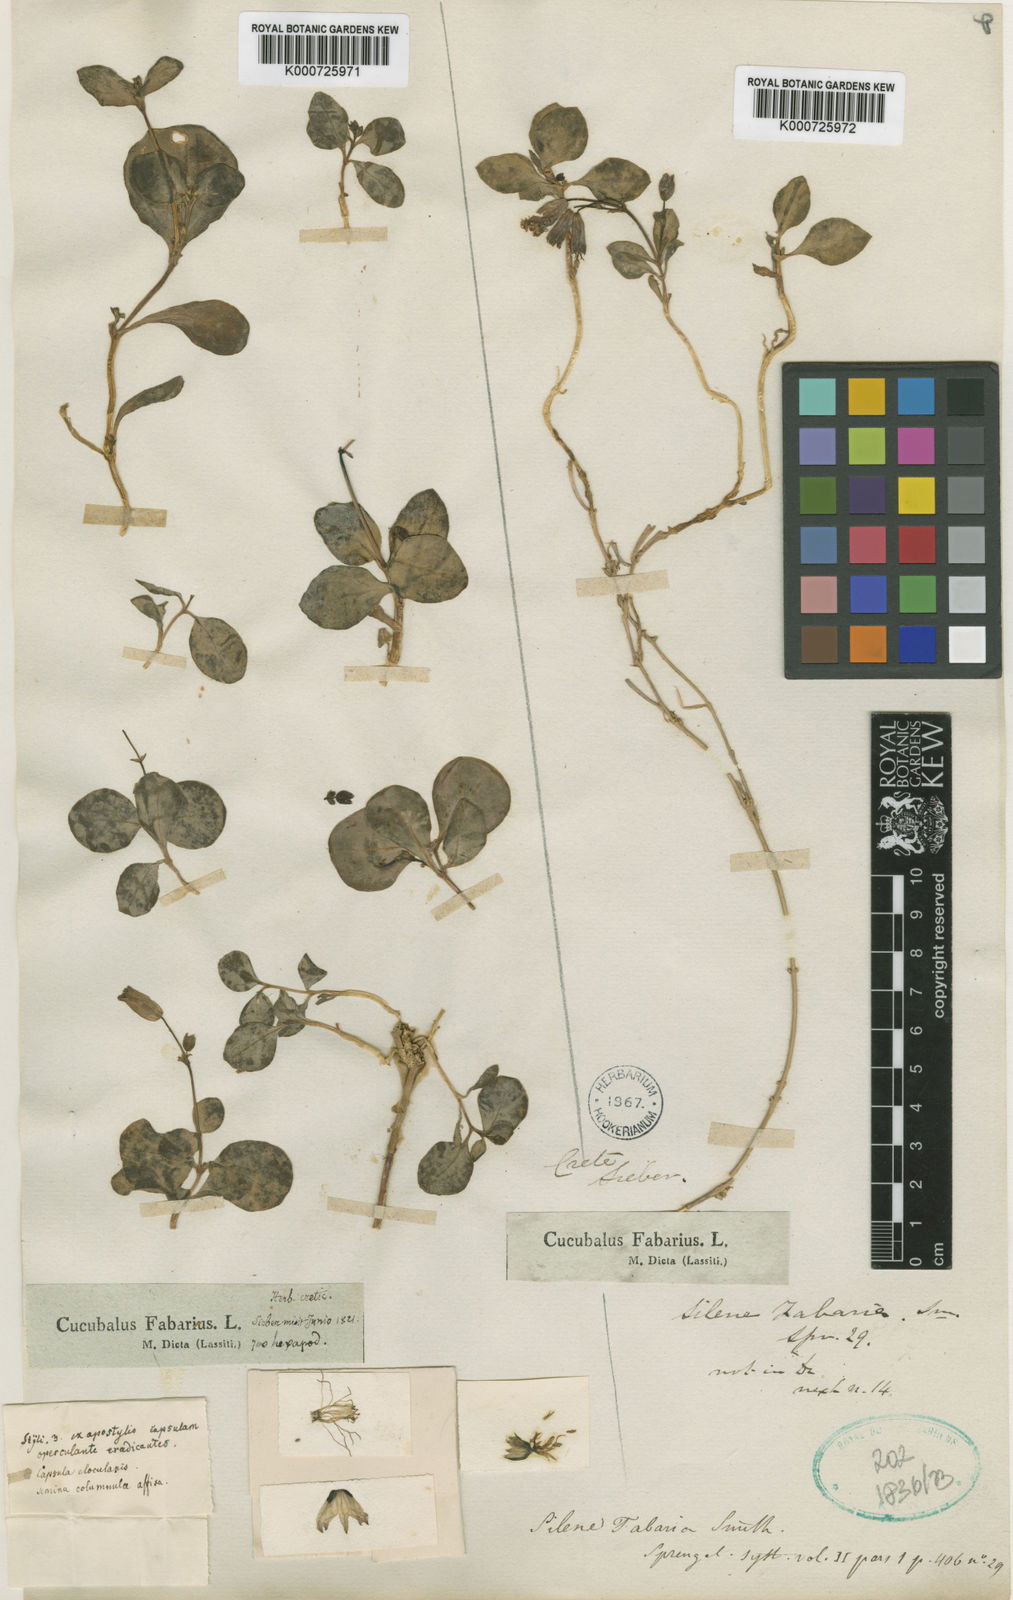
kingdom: Plantae
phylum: Tracheophyta
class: Magnoliopsida
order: Caryophyllales
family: Caryophyllaceae
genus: Silene
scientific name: Silene variegata
